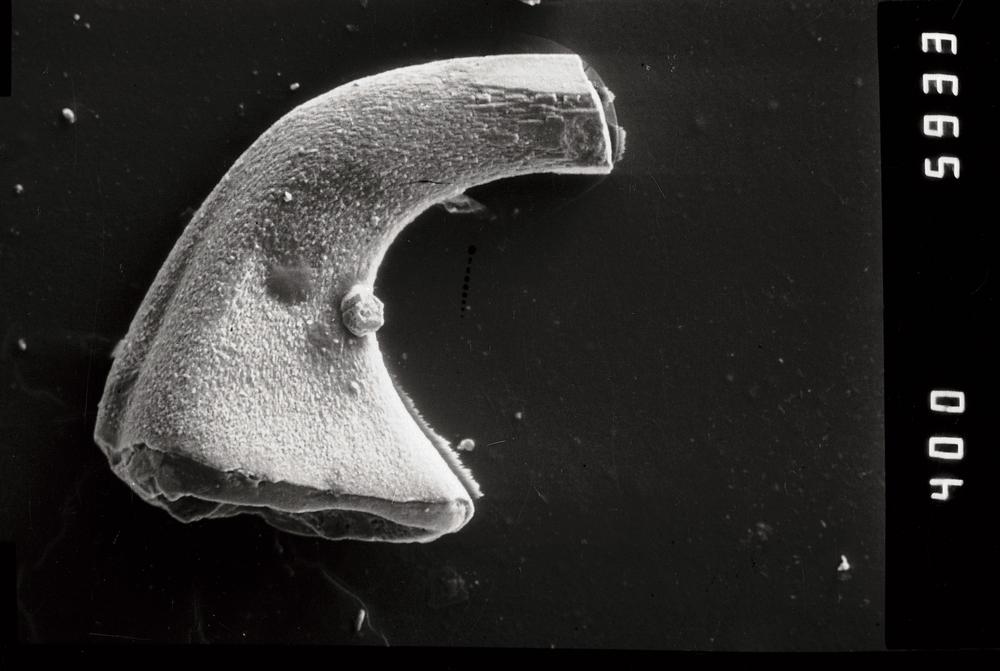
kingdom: Animalia
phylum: Chordata
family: Protopanderodontidae
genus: Variabiloconus
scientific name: Variabiloconus
